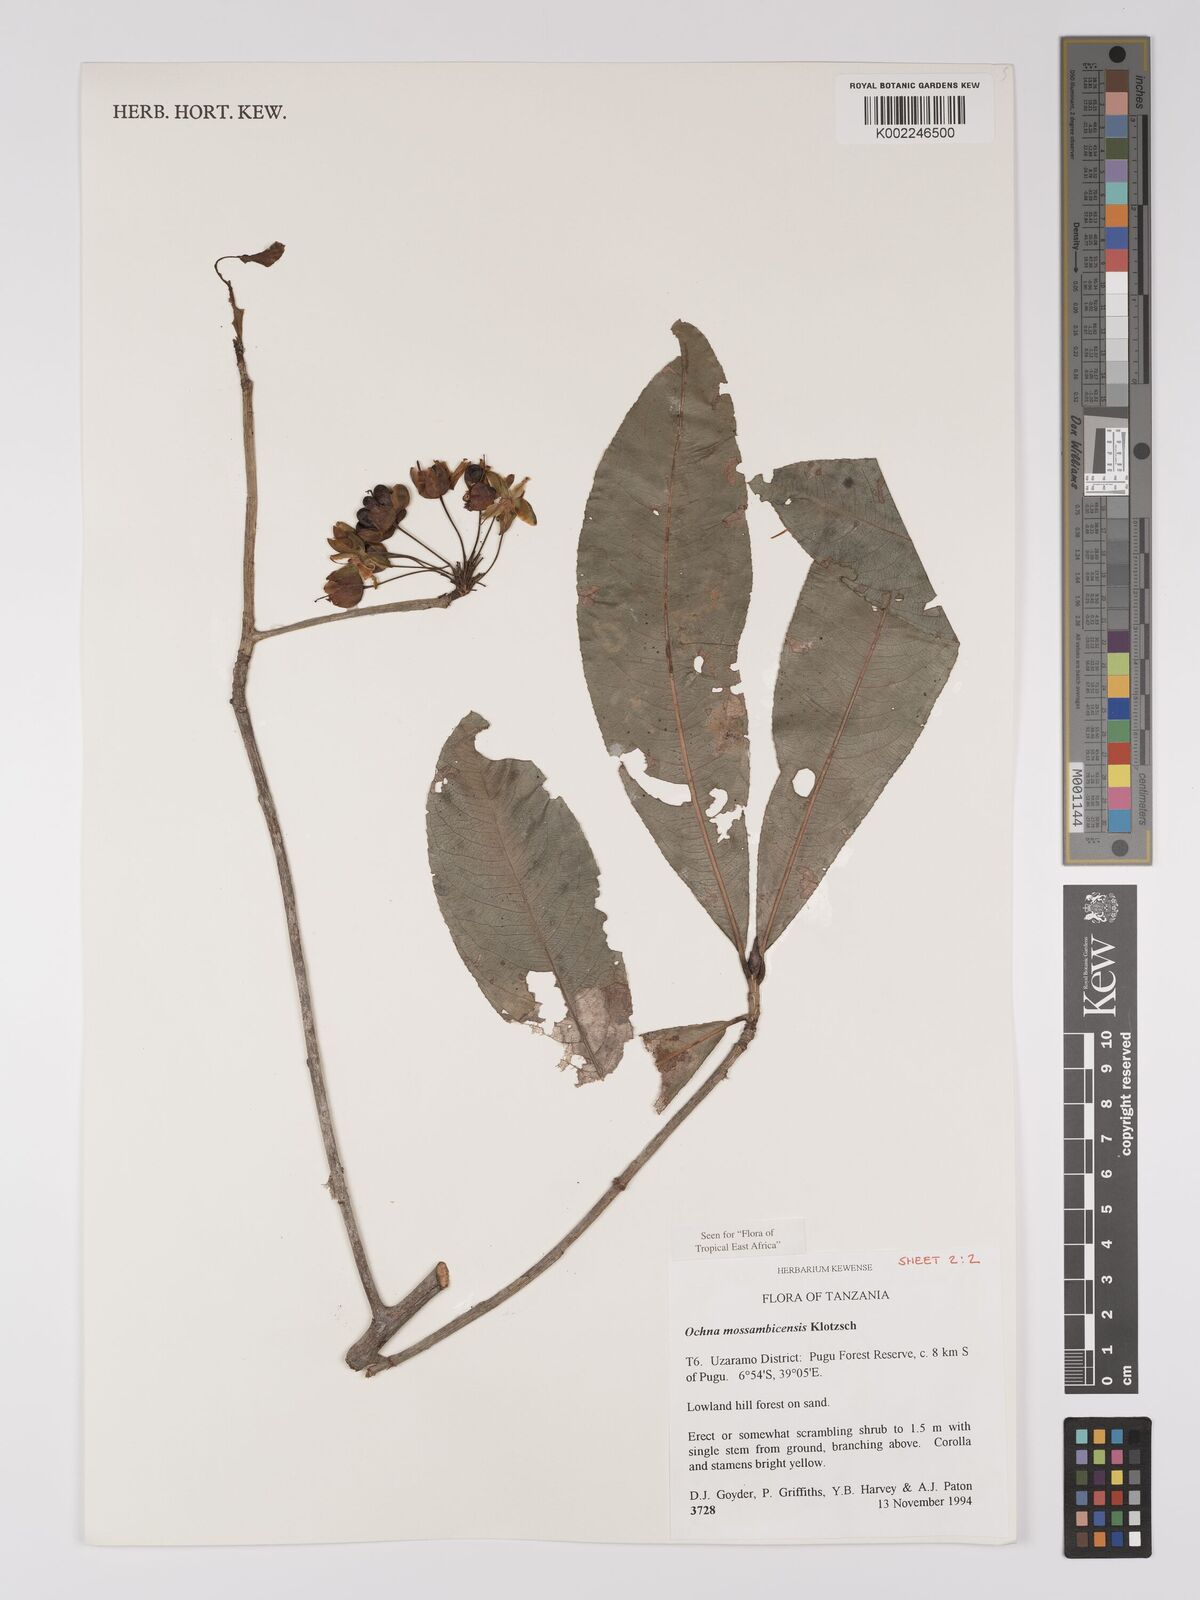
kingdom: Plantae
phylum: Tracheophyta
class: Magnoliopsida
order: Malpighiales
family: Ochnaceae
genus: Ochna
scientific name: Ochna atropurpurea
